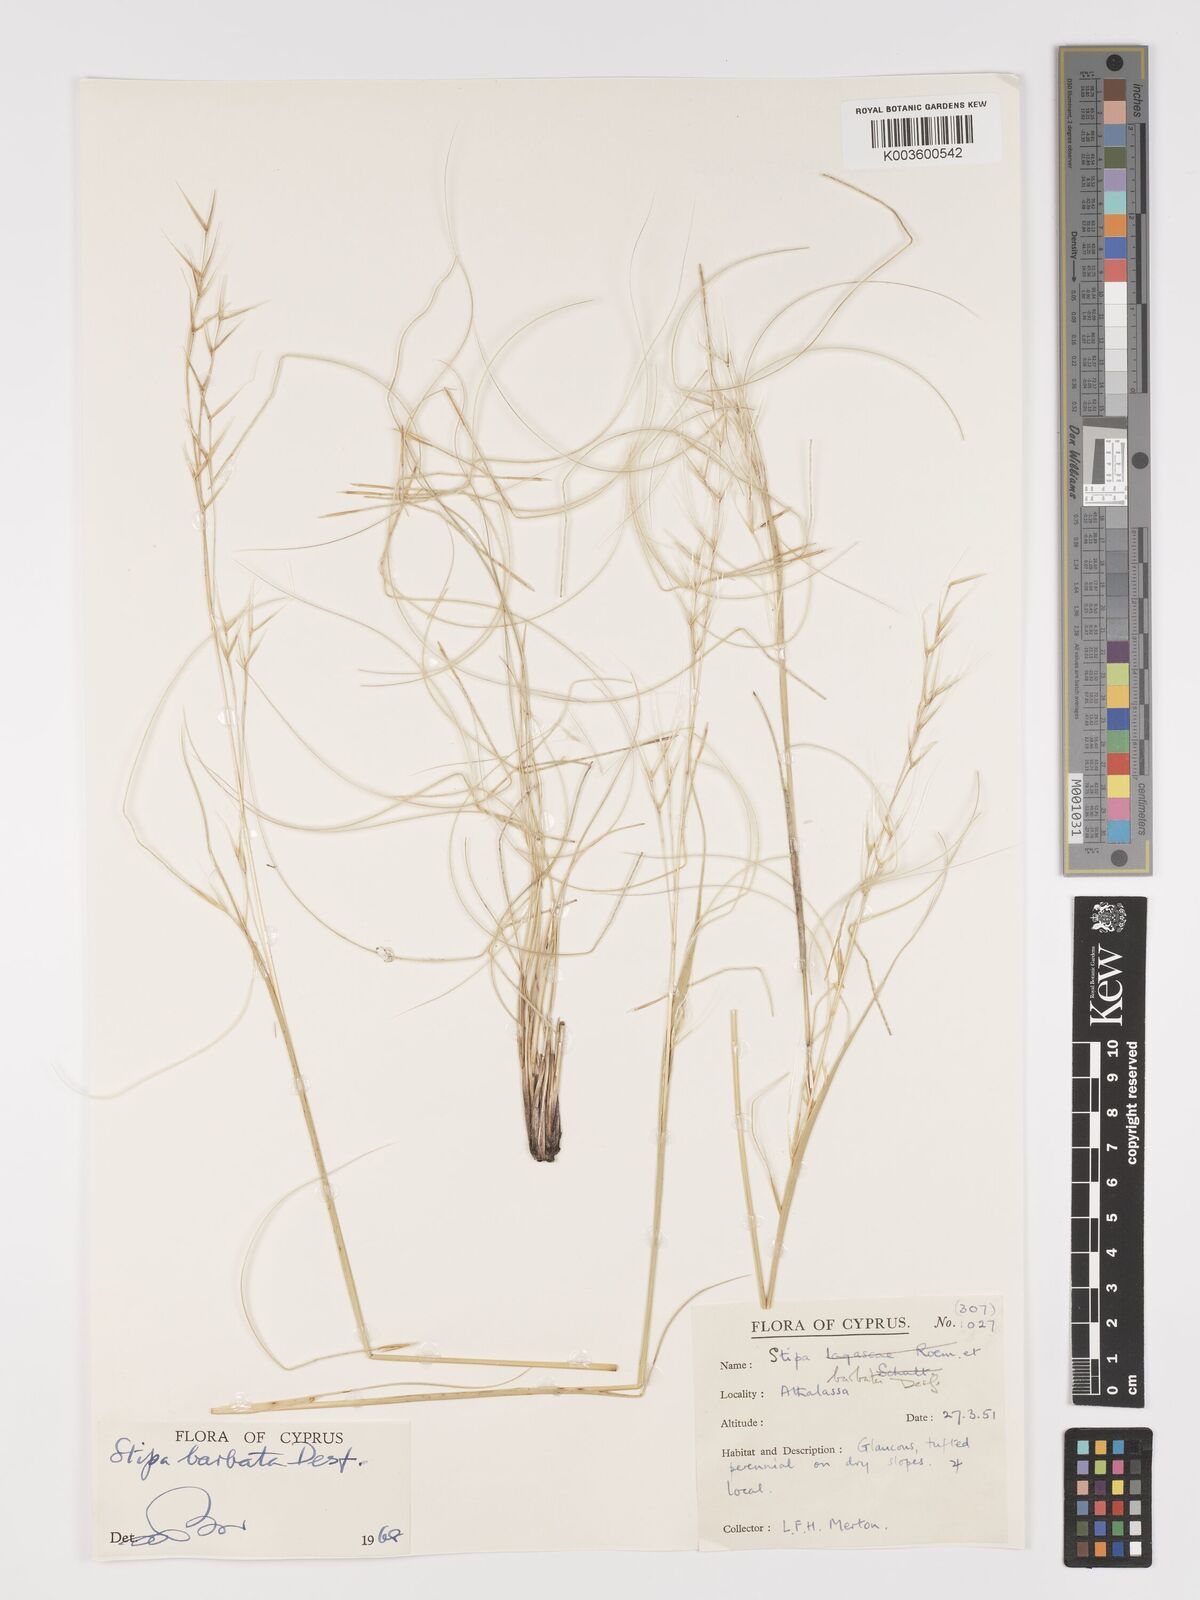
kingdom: Plantae
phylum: Tracheophyta
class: Liliopsida
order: Poales
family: Poaceae
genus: Stipa
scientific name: Stipa barbata
